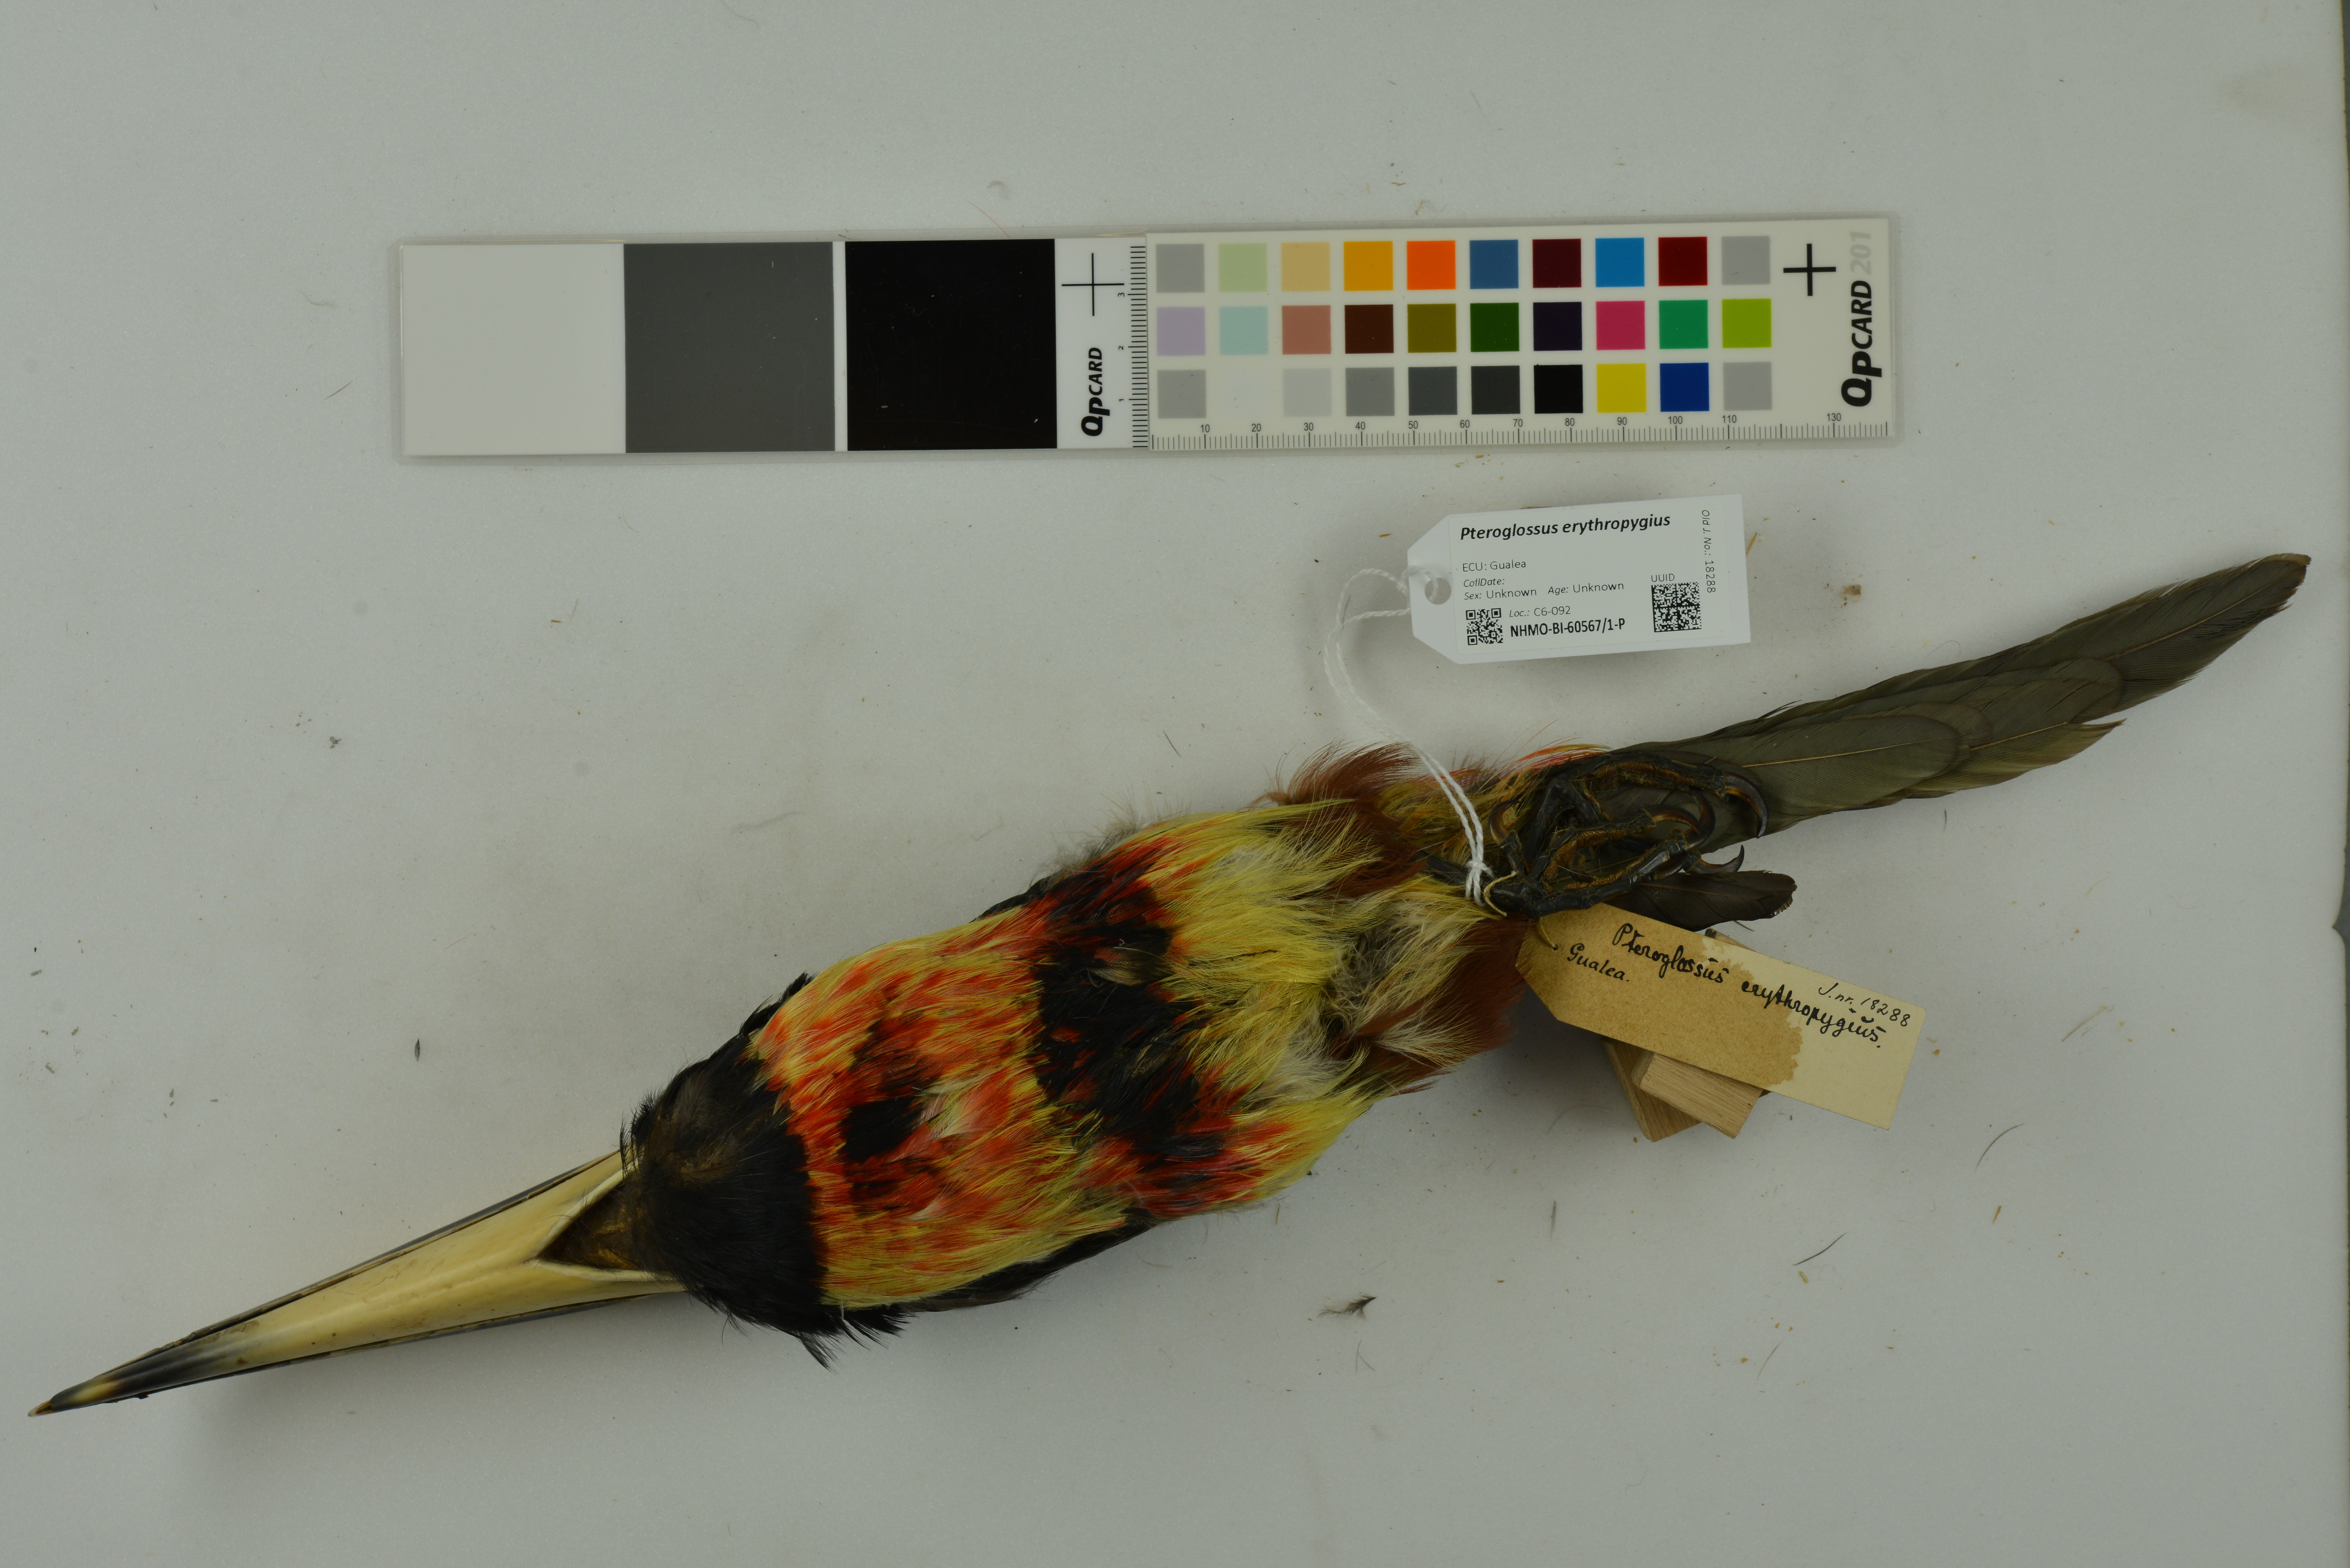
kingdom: Animalia
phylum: Chordata
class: Aves
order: Piciformes
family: Ramphastidae
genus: Pteroglossus
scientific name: Pteroglossus erythropygius
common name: Pale-mandibled aracari
